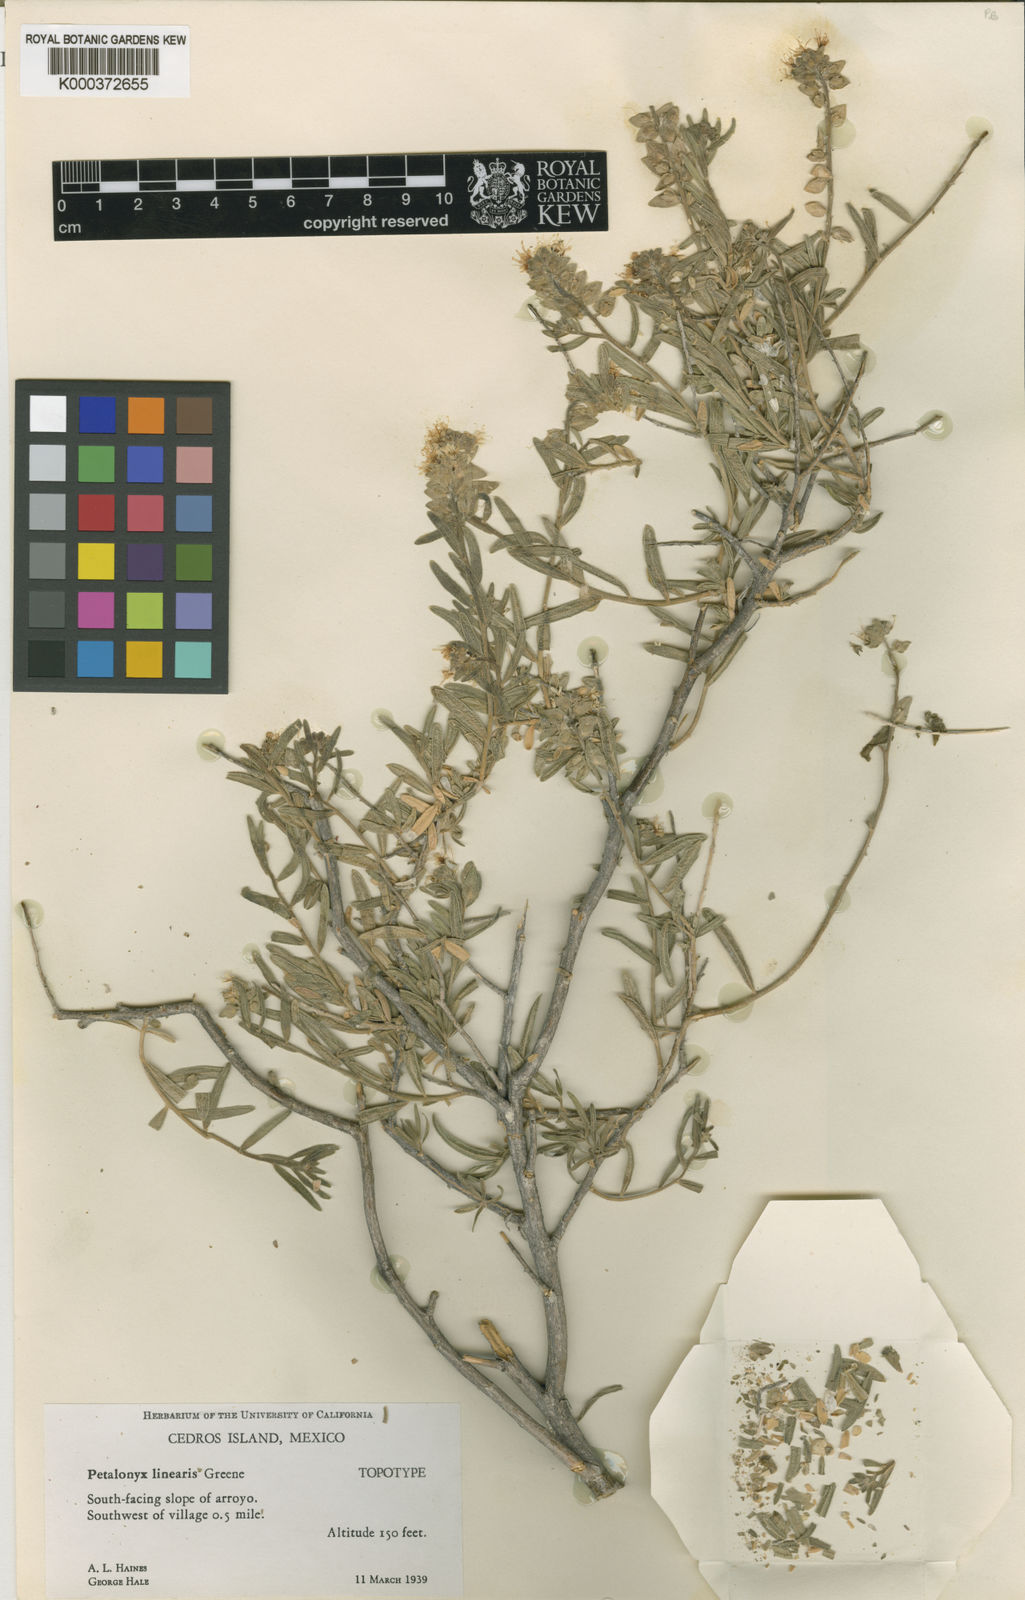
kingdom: Plantae
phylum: Tracheophyta
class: Magnoliopsida
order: Cornales
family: Loasaceae
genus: Petalonyx
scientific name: Petalonyx linearis
